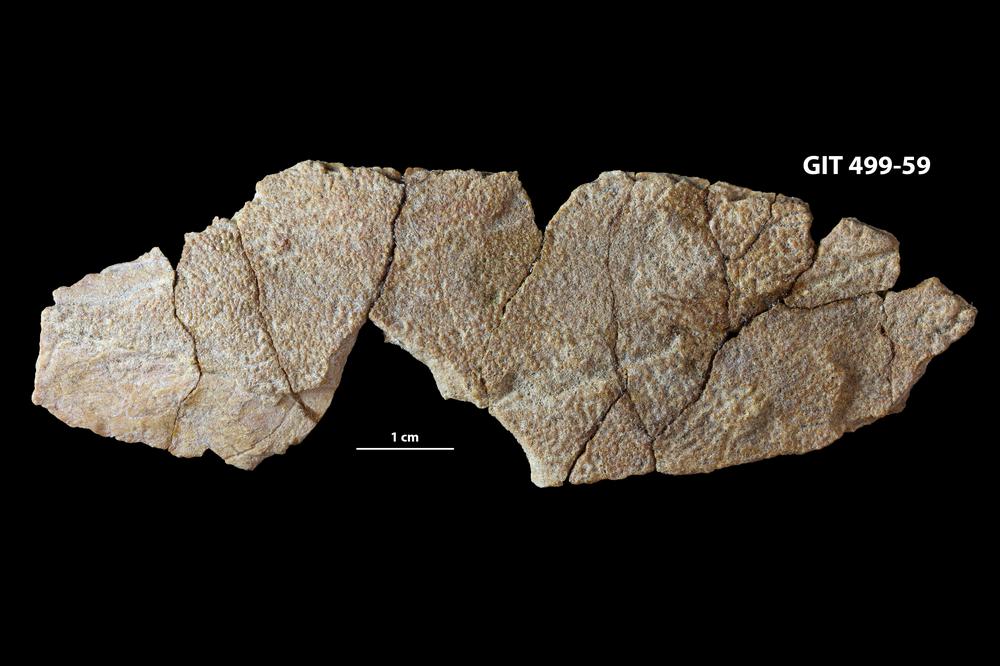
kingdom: Animalia
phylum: Chordata
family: Holoptychiidae
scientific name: Holoptychiidae
